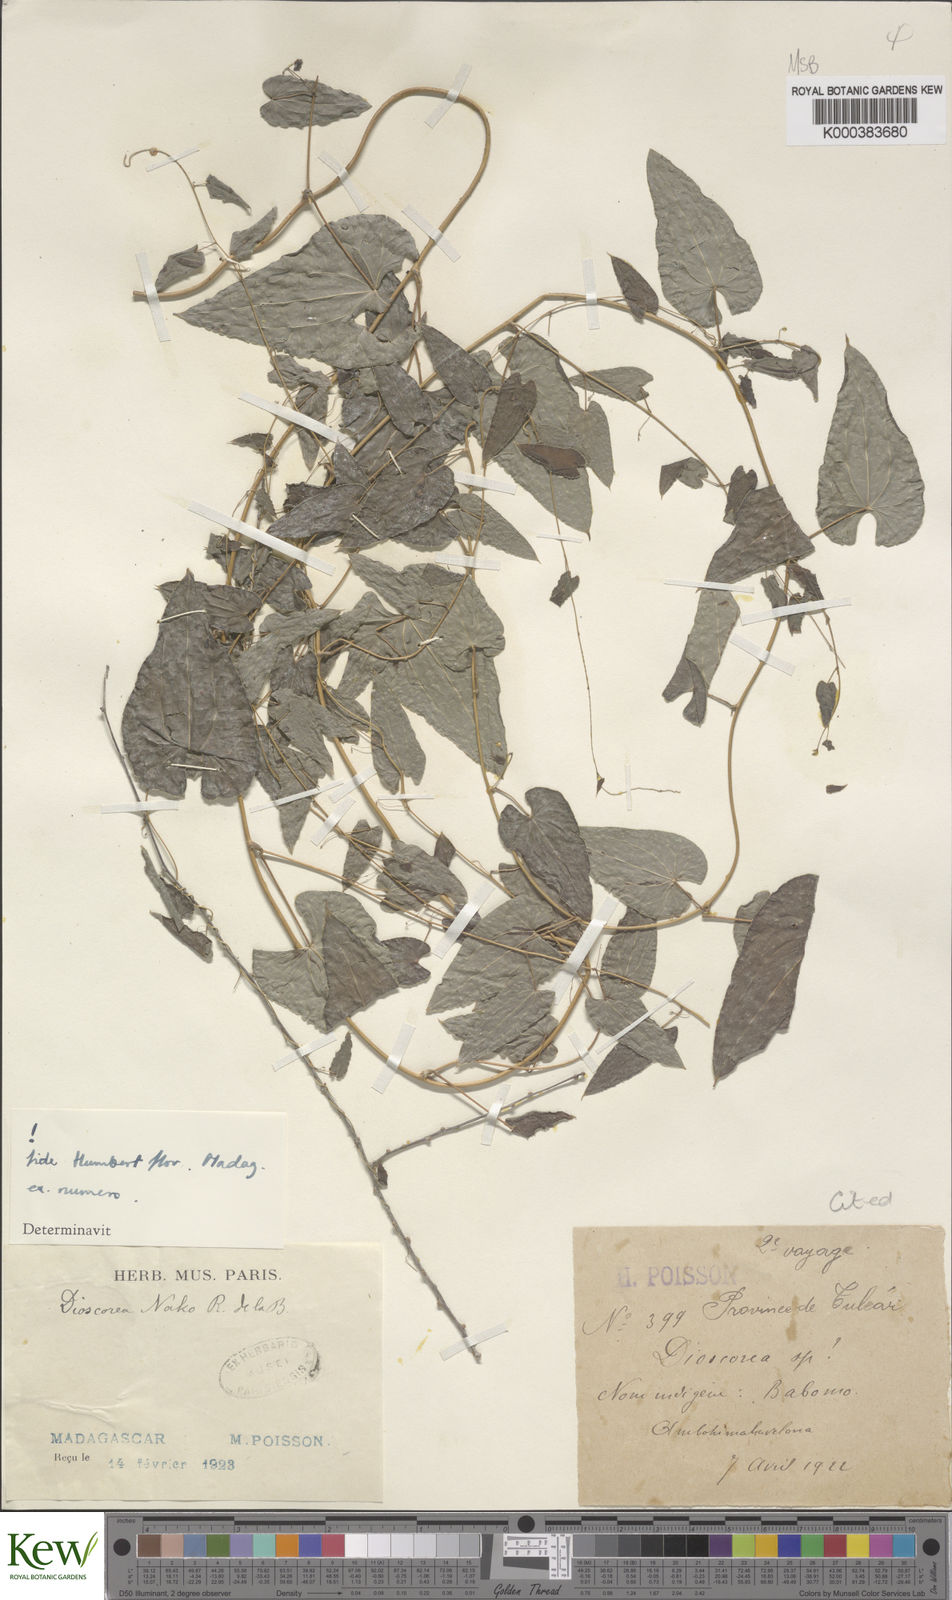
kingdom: Plantae
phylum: Tracheophyta
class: Liliopsida
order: Dioscoreales
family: Dioscoreaceae
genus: Dioscorea
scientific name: Dioscorea
